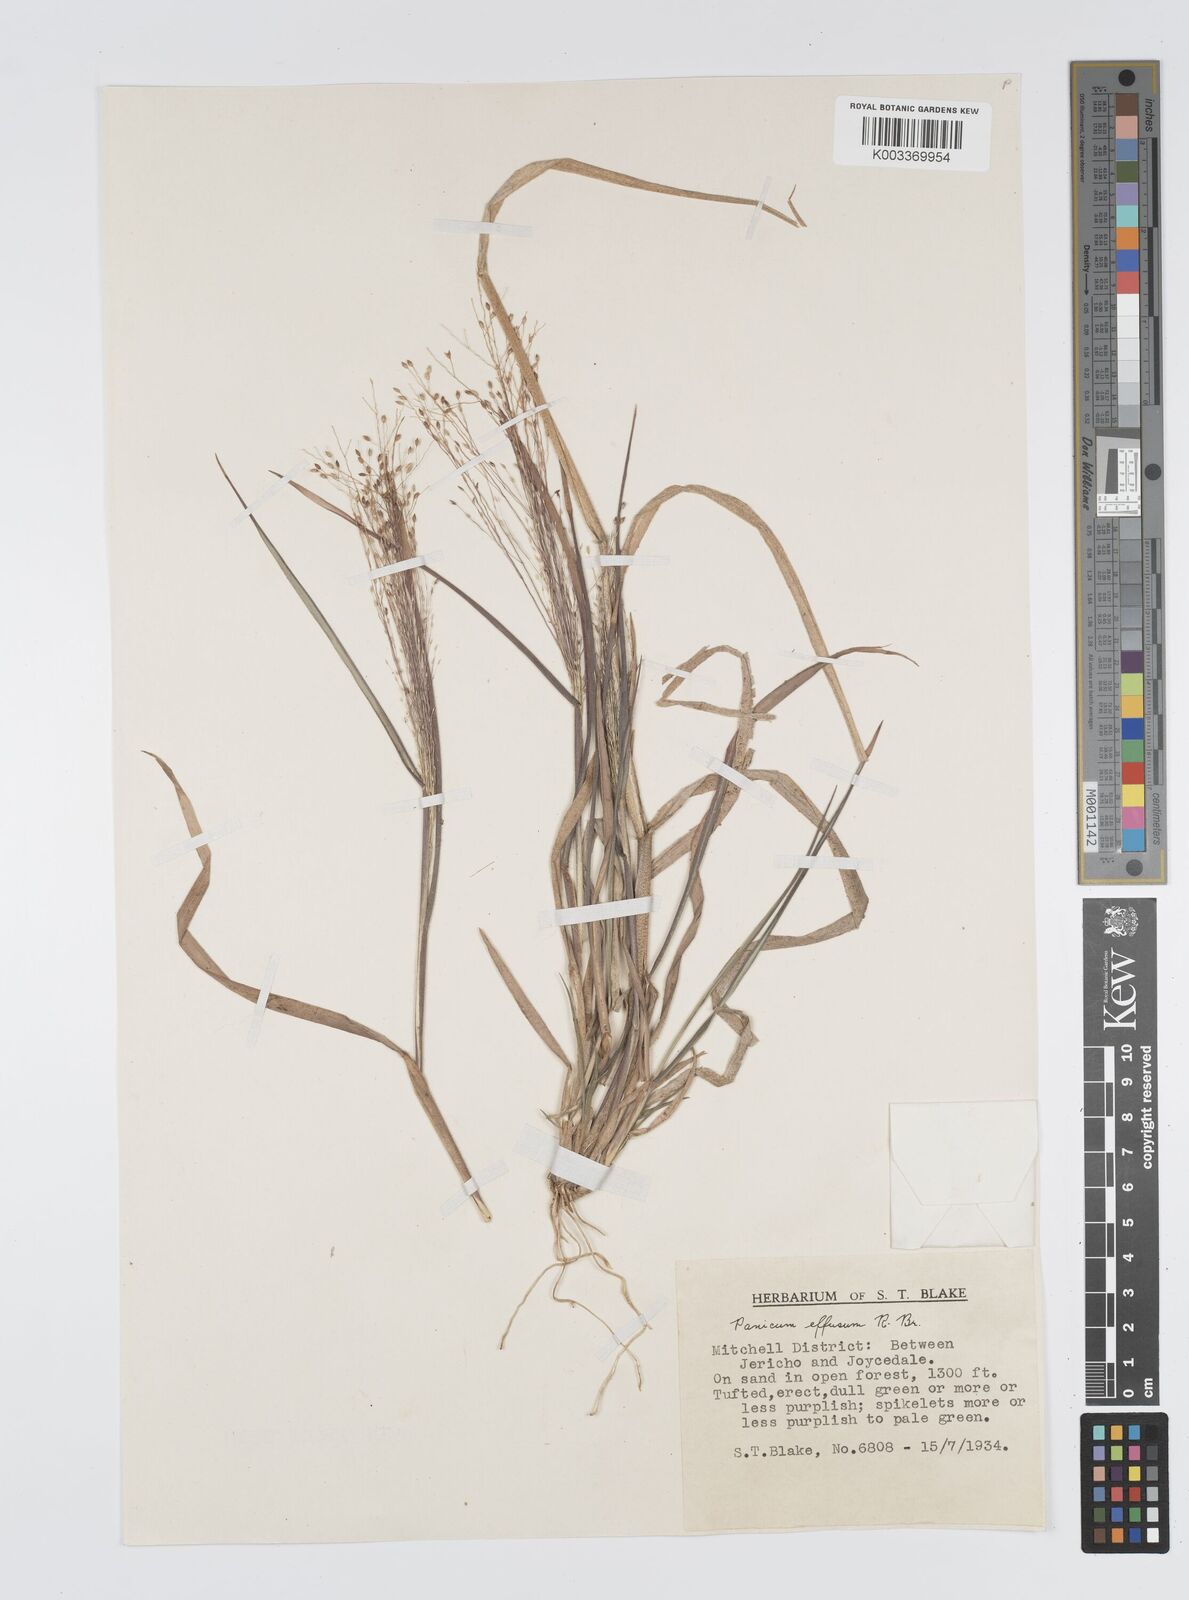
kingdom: Plantae
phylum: Tracheophyta
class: Liliopsida
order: Poales
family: Poaceae
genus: Panicum
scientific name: Panicum effusum
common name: Hairy panic grass
